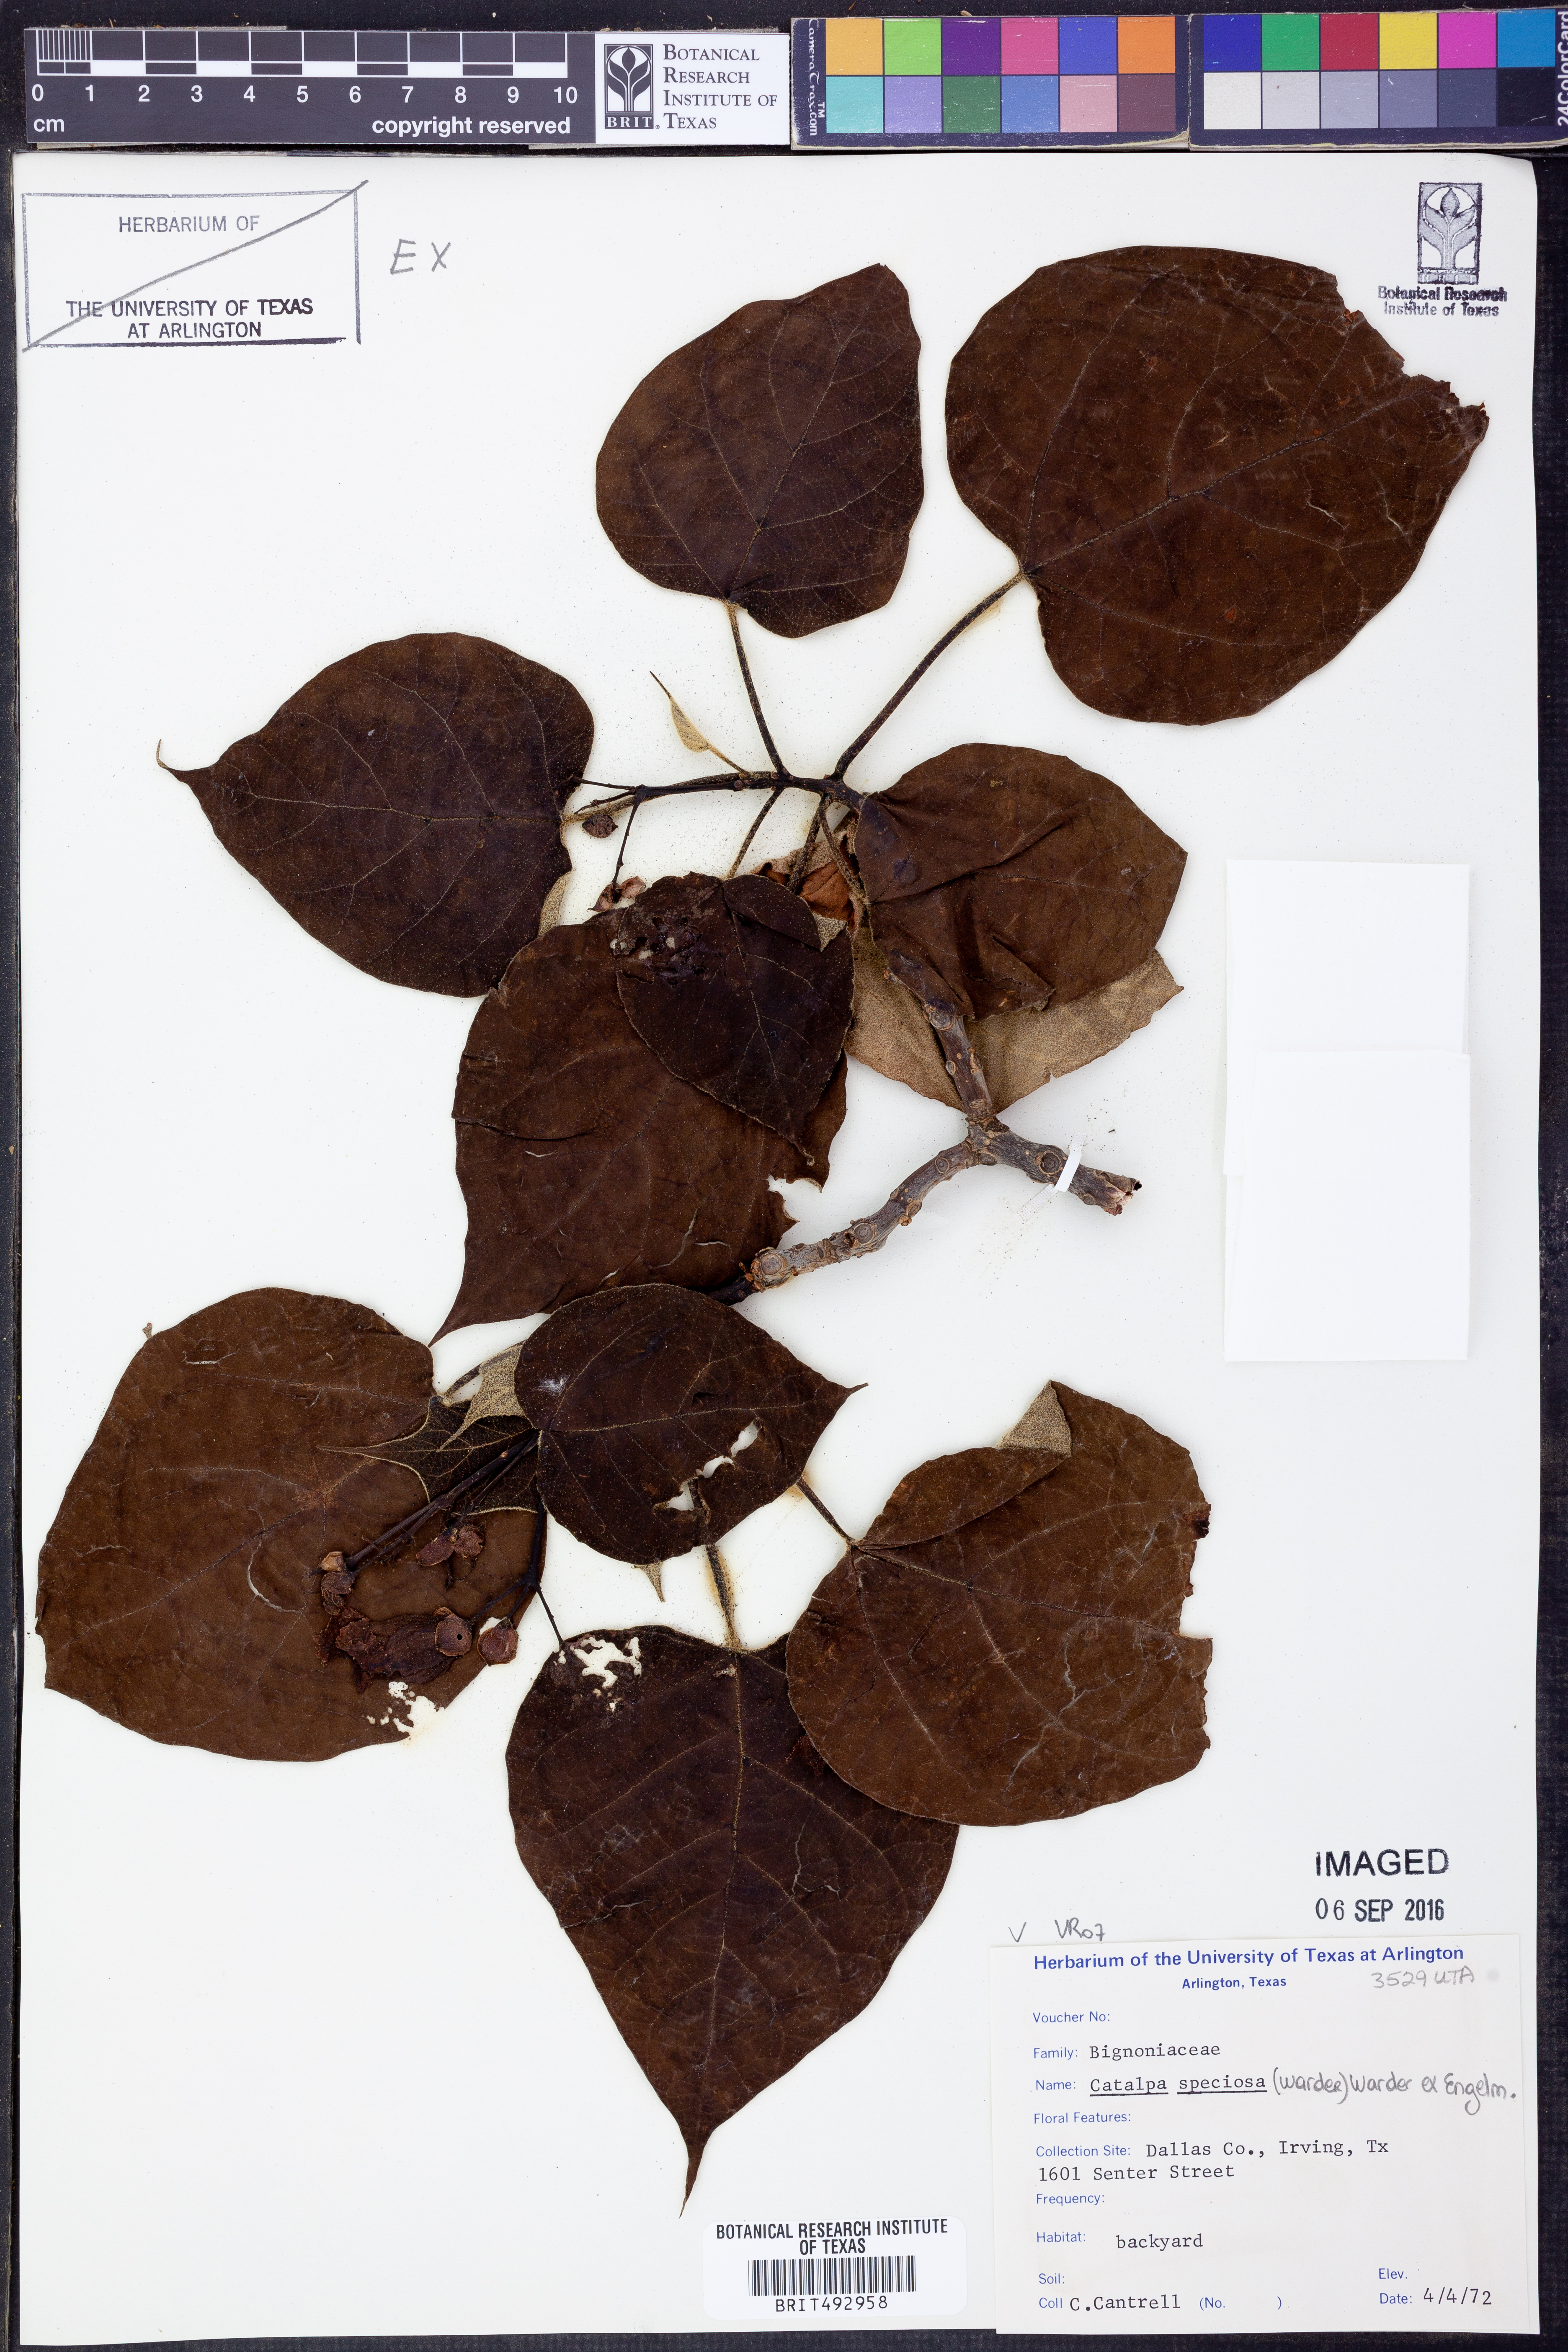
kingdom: Plantae
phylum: Tracheophyta
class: Magnoliopsida
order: Lamiales
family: Bignoniaceae
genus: Catalpa
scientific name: Catalpa speciosa
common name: Northern catalpa
